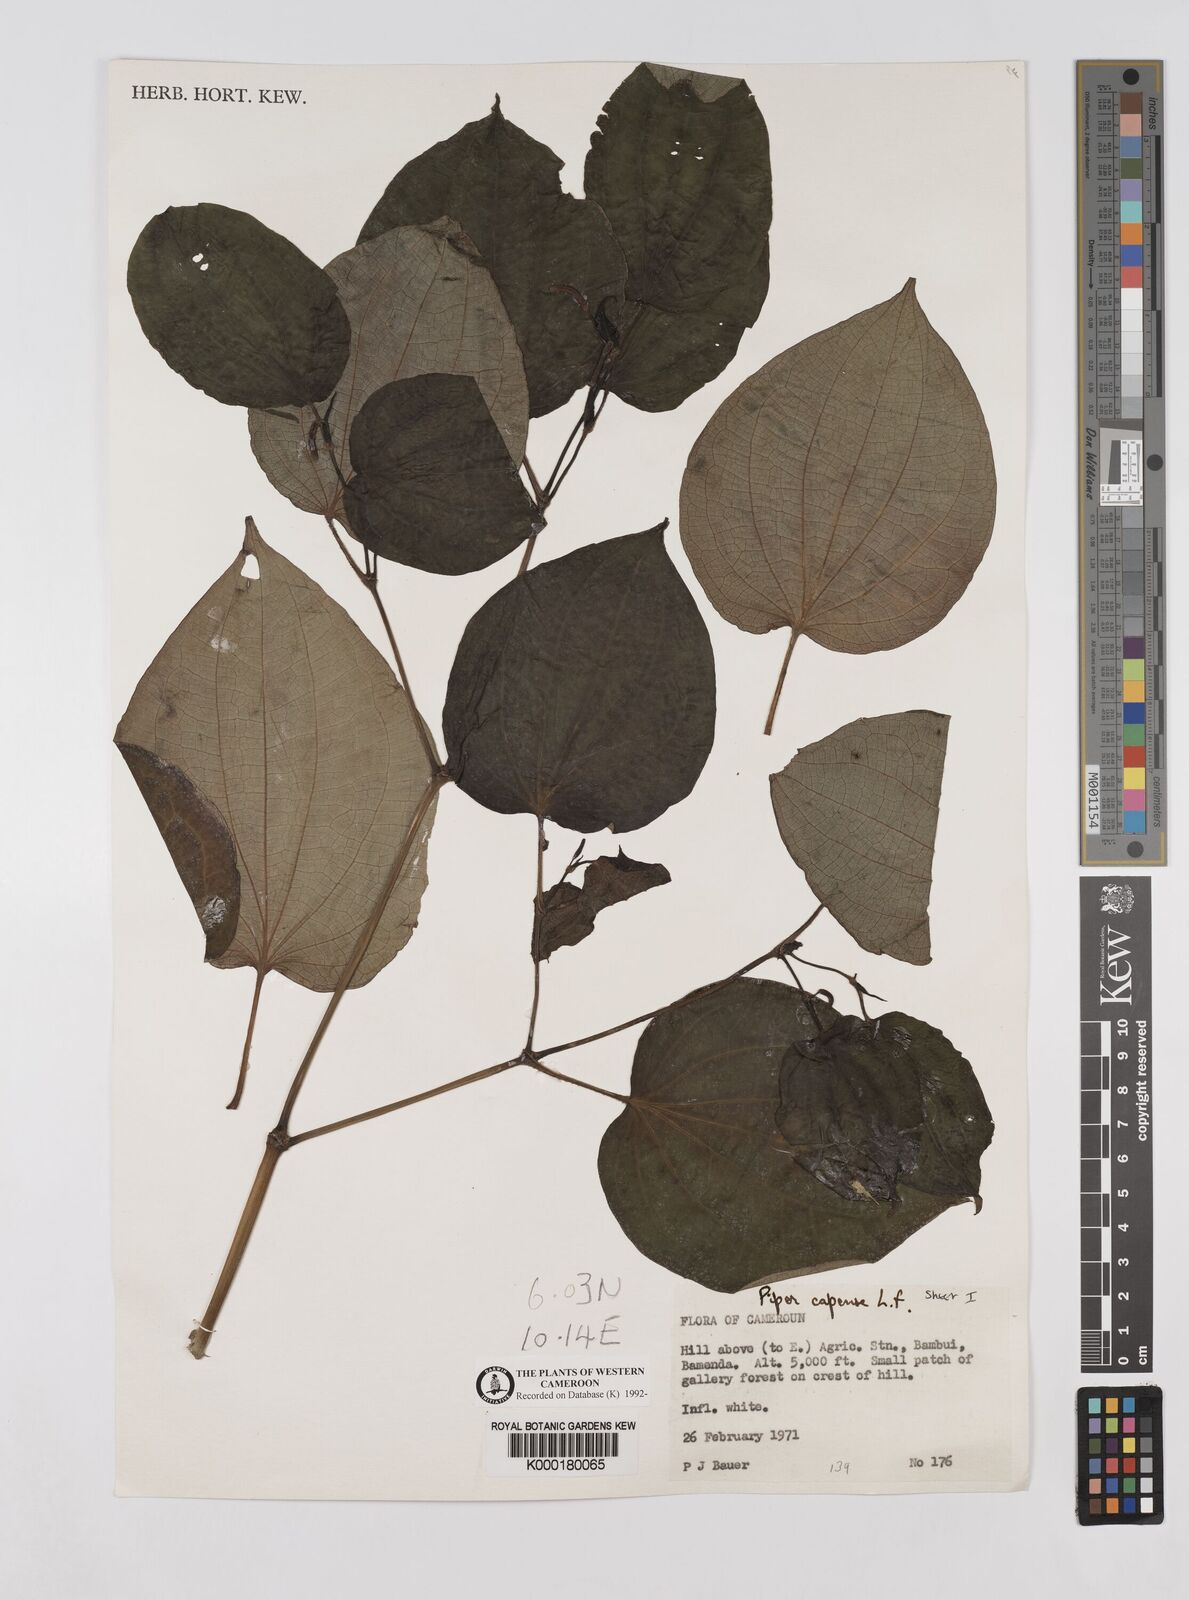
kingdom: Plantae
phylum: Tracheophyta
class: Magnoliopsida
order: Piperales
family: Piperaceae
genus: Piper
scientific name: Piper capense
